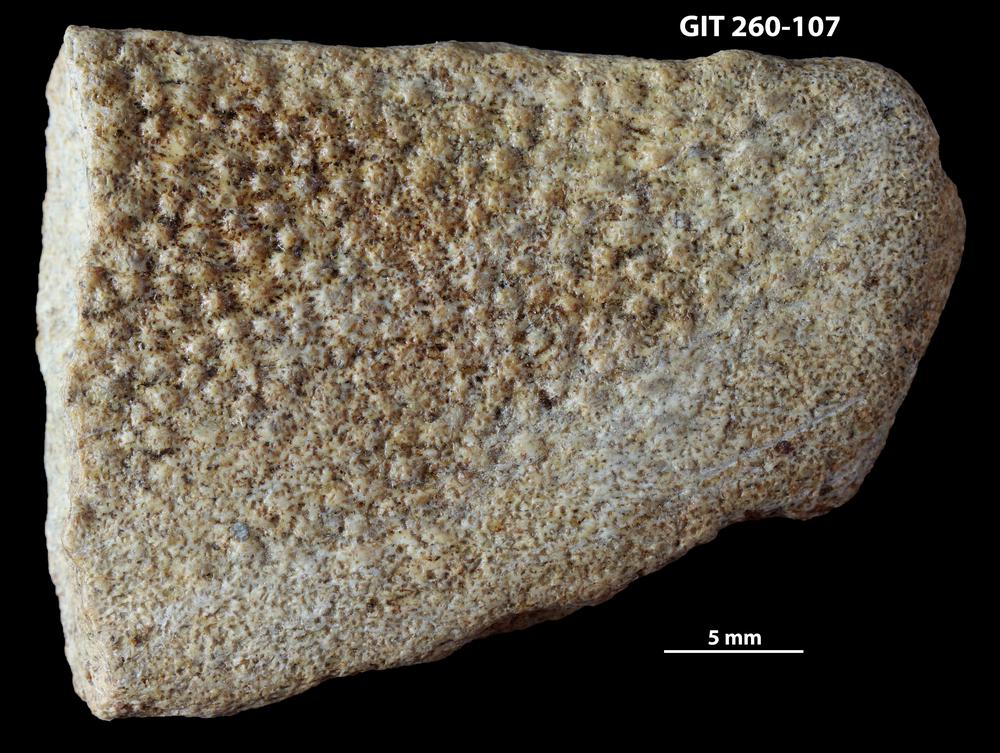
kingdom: Animalia
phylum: Chordata
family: Homostiidae
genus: Homostius
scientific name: Homostius
